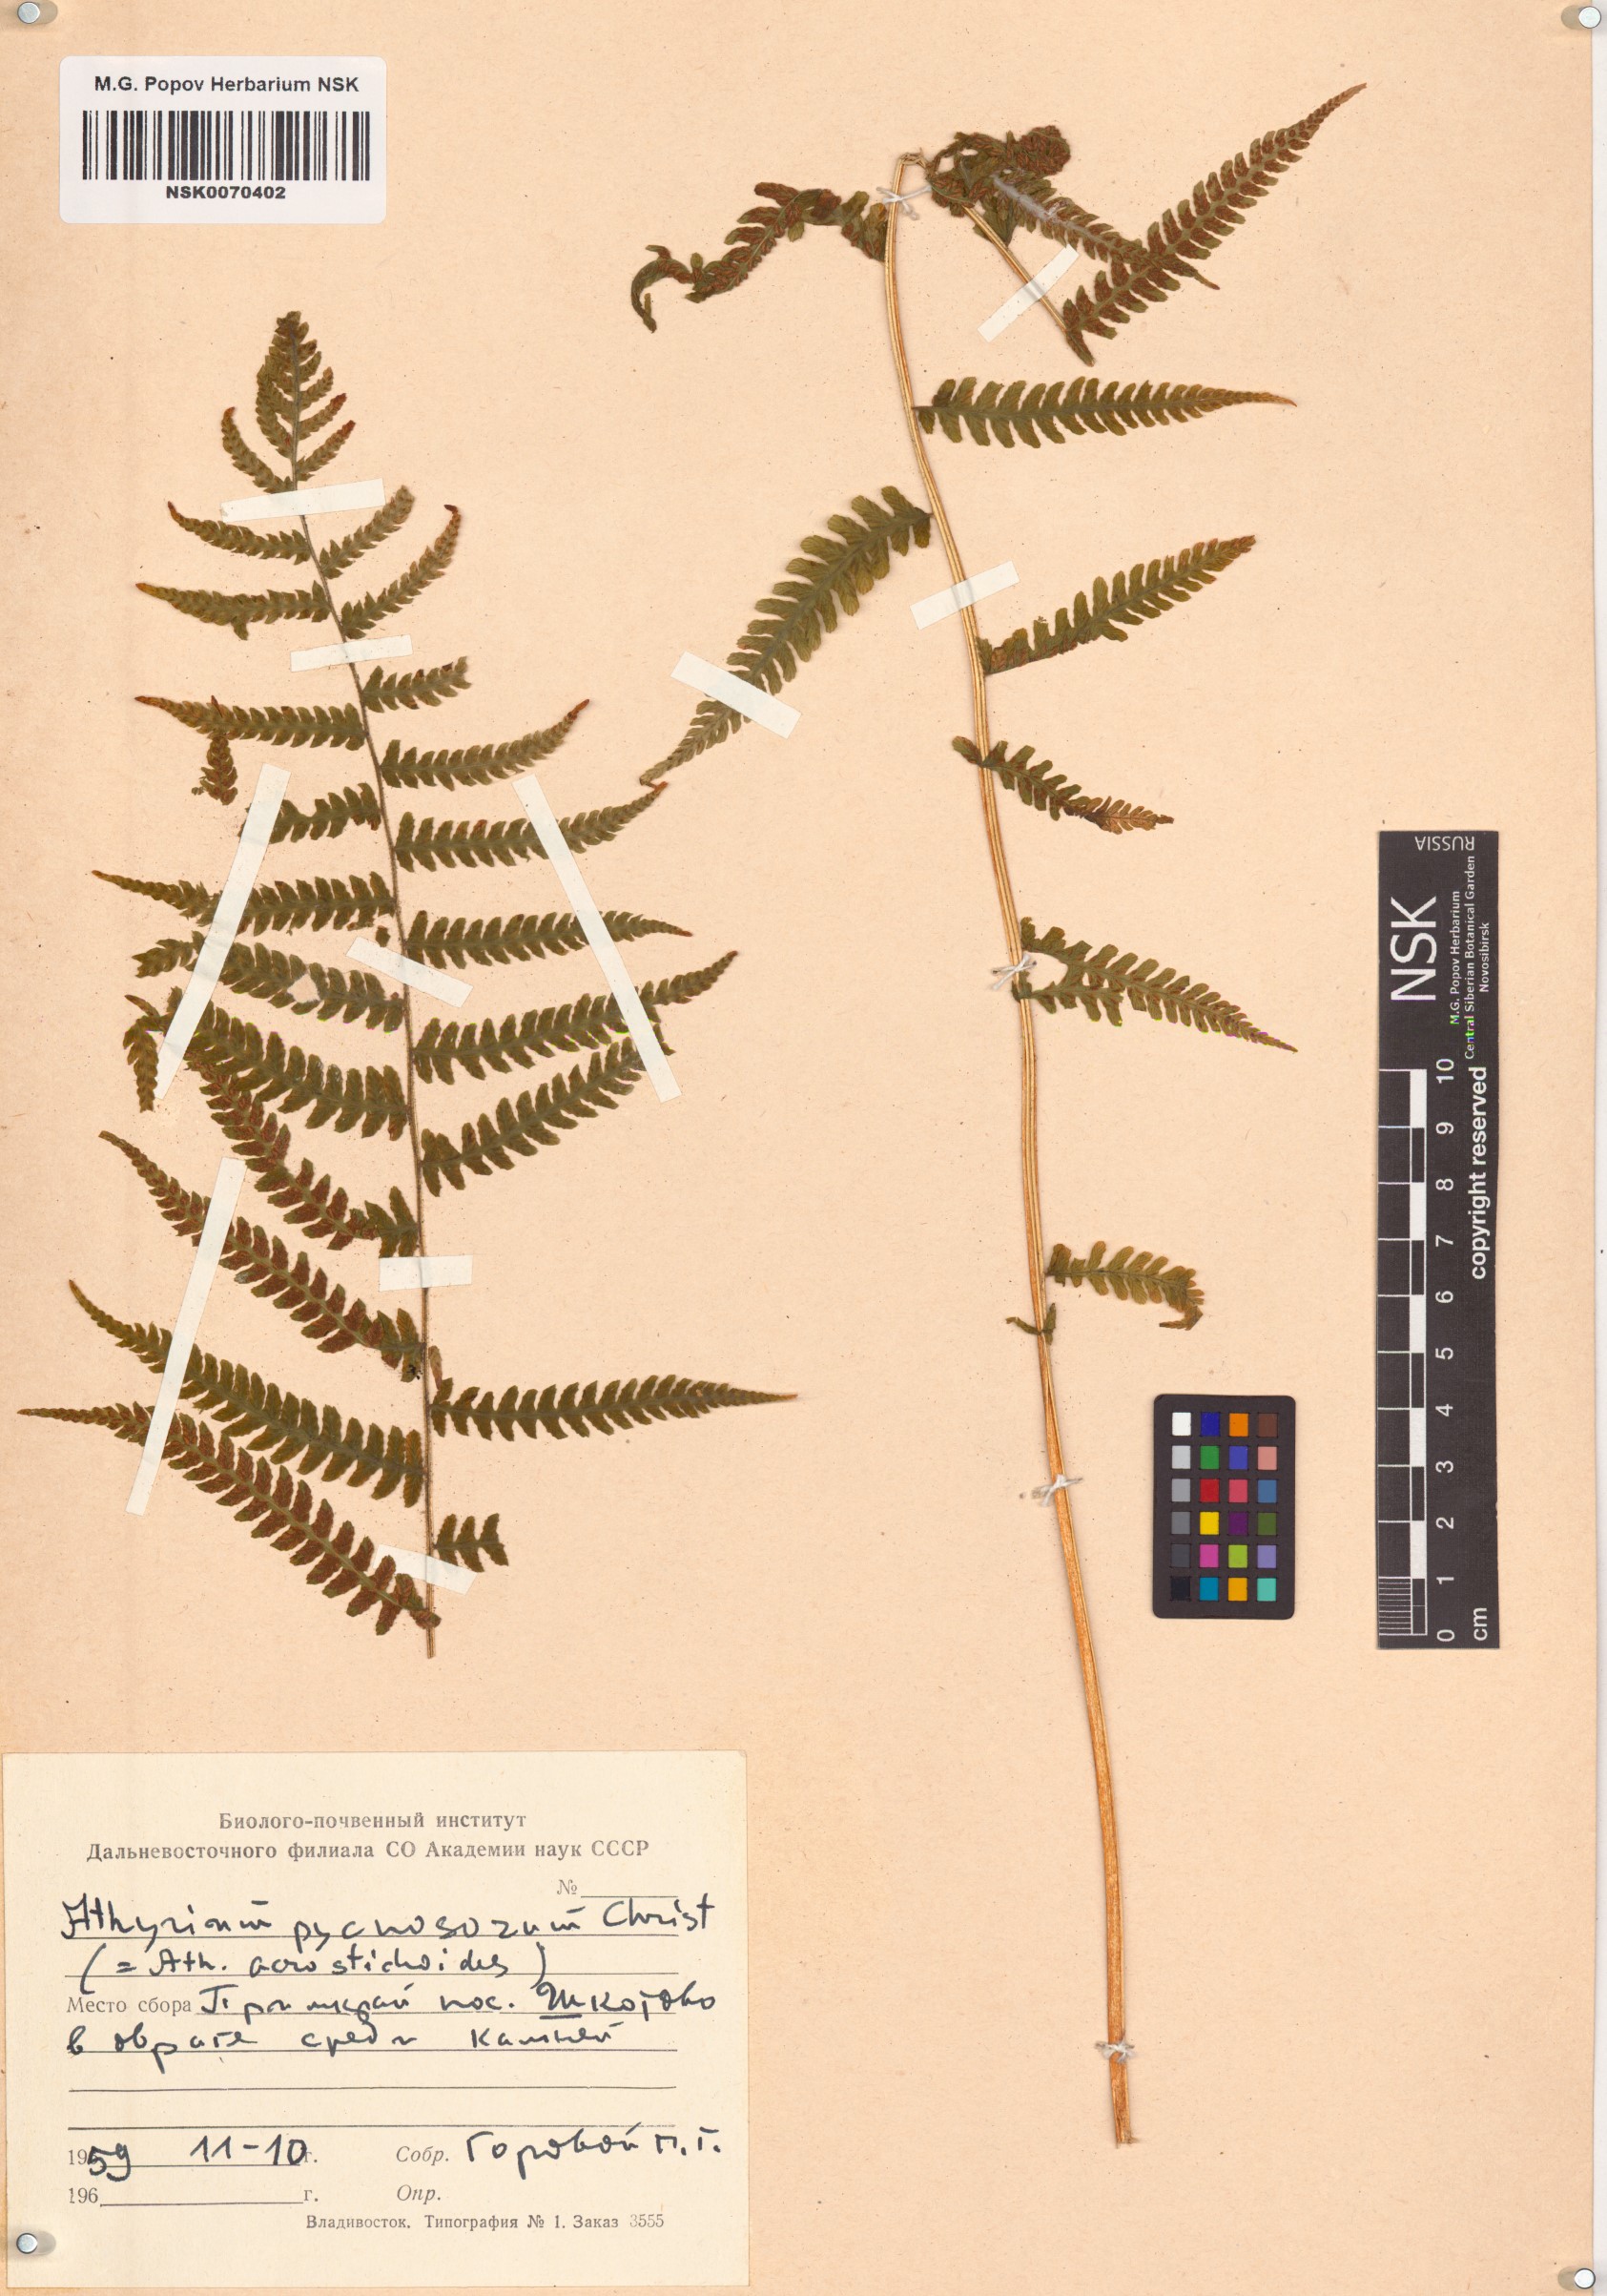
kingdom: Plantae
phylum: Tracheophyta
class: Polypodiopsida
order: Polypodiales
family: Athyriaceae
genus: Deparia
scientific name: Deparia pycnosora
